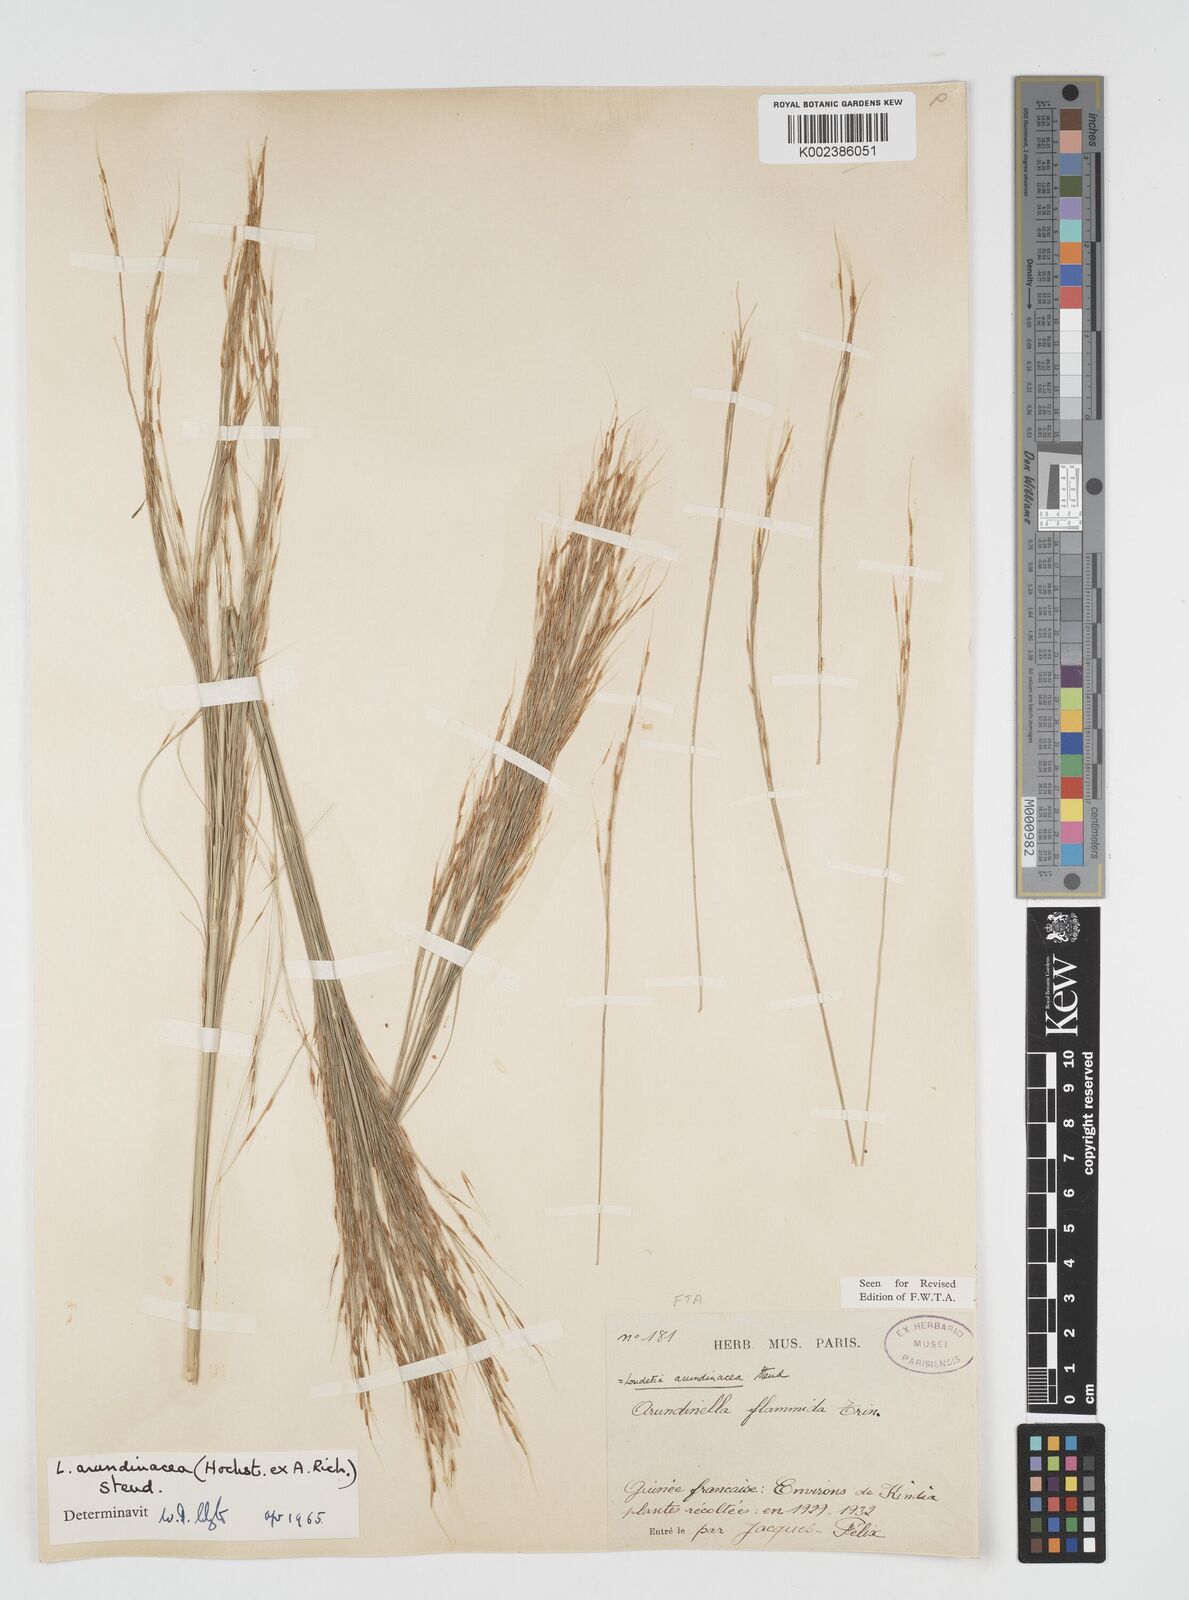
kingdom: Plantae
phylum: Tracheophyta
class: Liliopsida
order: Poales
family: Poaceae
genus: Loudetia
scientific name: Loudetia arundinacea
